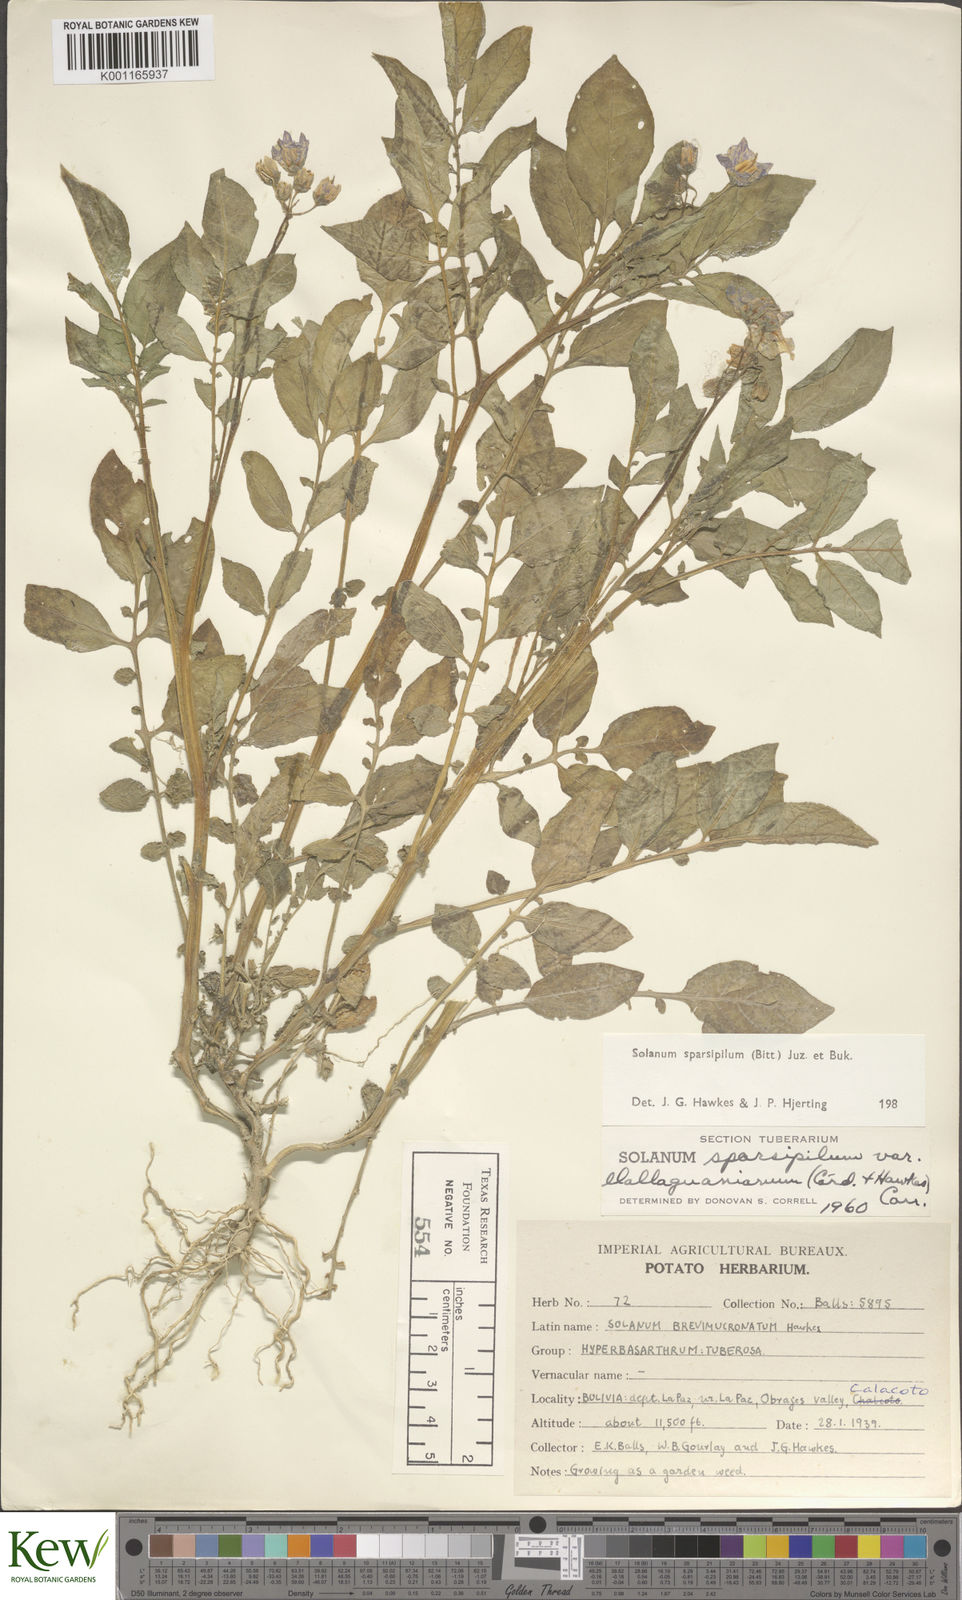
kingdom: Plantae
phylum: Tracheophyta
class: Magnoliopsida
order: Solanales
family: Solanaceae
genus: Solanum
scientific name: Solanum brevicaule
